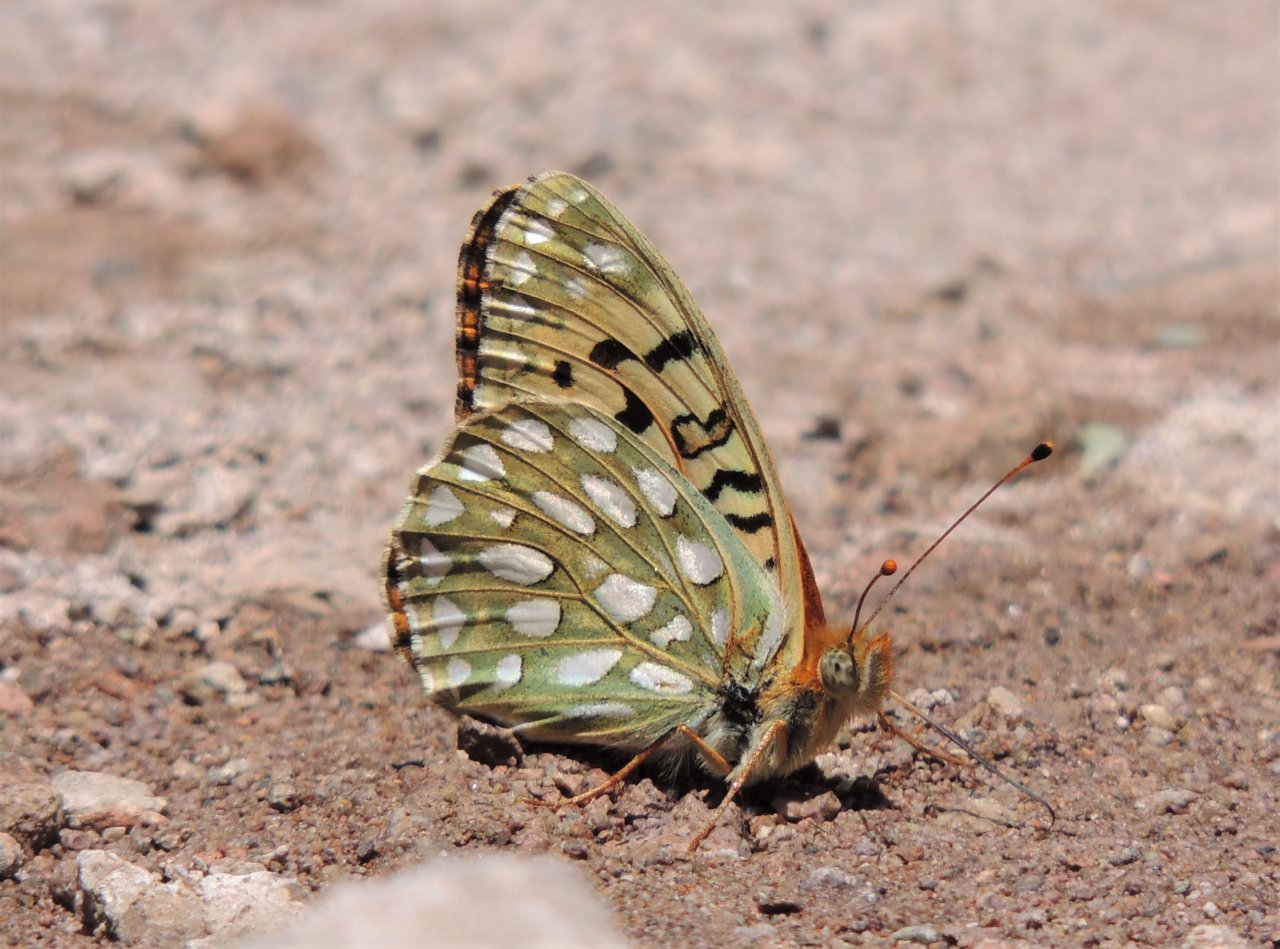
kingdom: Animalia
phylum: Arthropoda
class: Insecta
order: Lepidoptera
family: Nymphalidae
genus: Speyeria
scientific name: Speyeria callippe
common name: Callippe Fritillary
